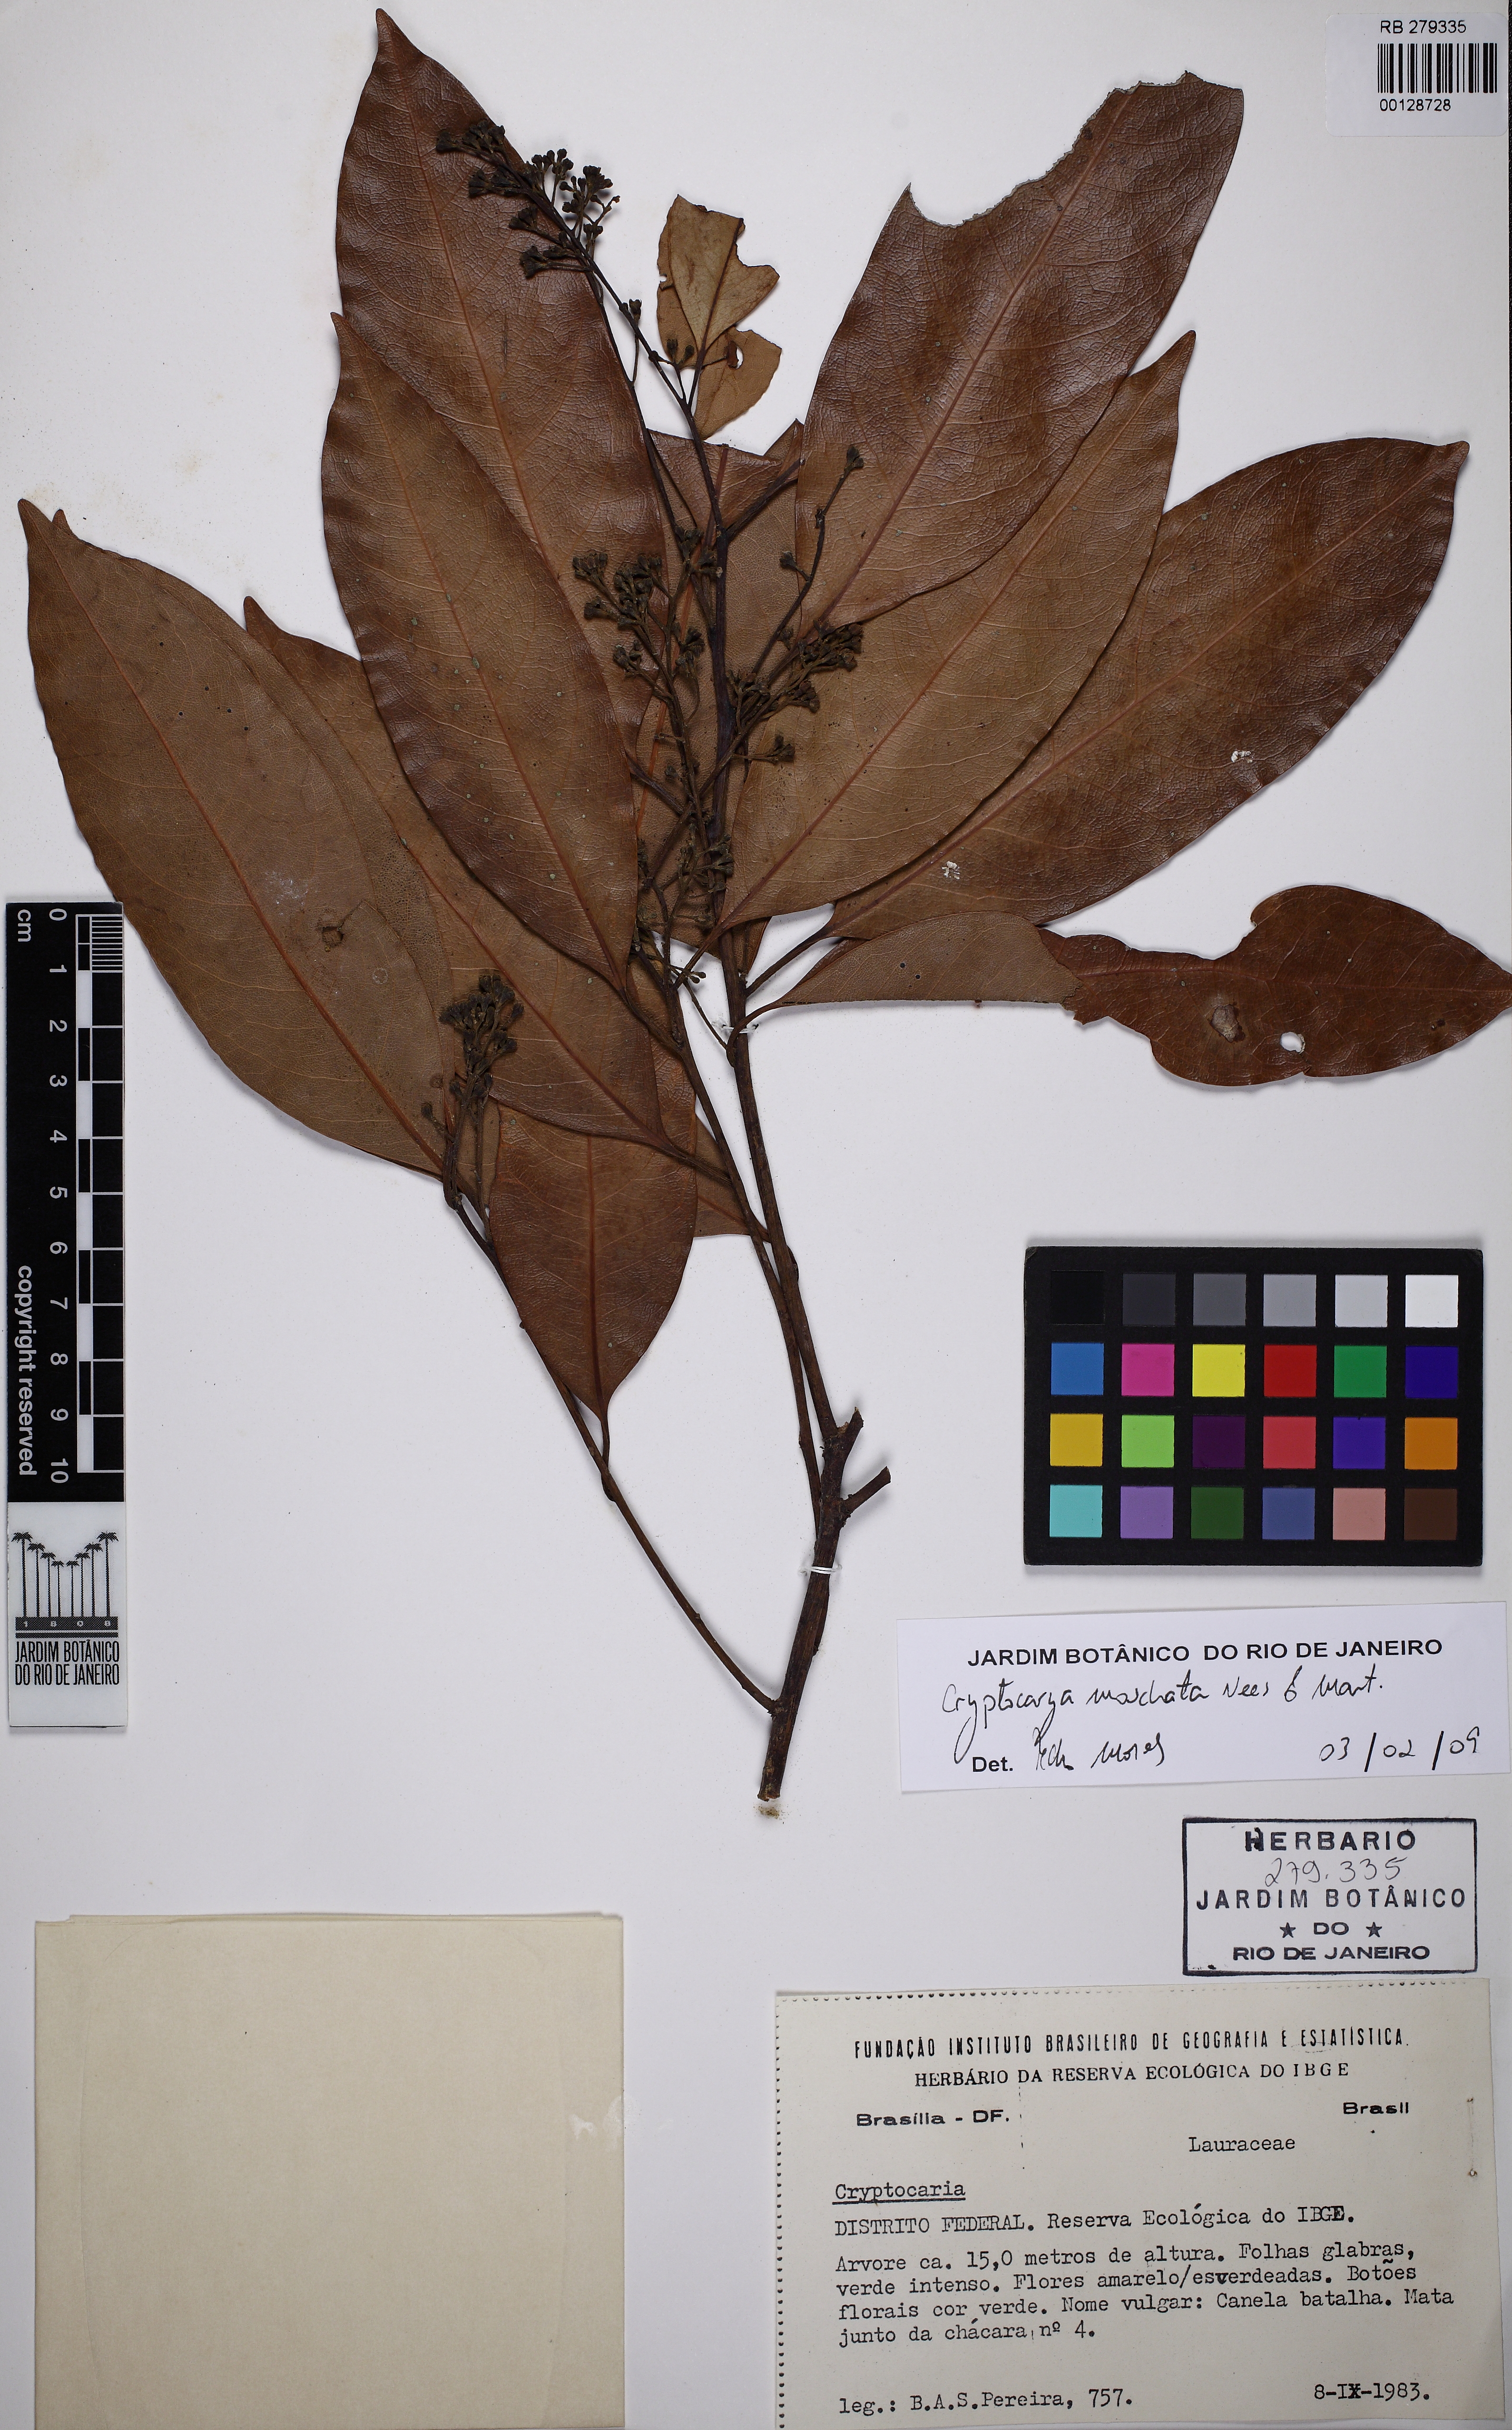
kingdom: Plantae
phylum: Tracheophyta
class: Magnoliopsida
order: Laurales
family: Lauraceae
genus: Cryptocarya
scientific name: Cryptocarya moschata
